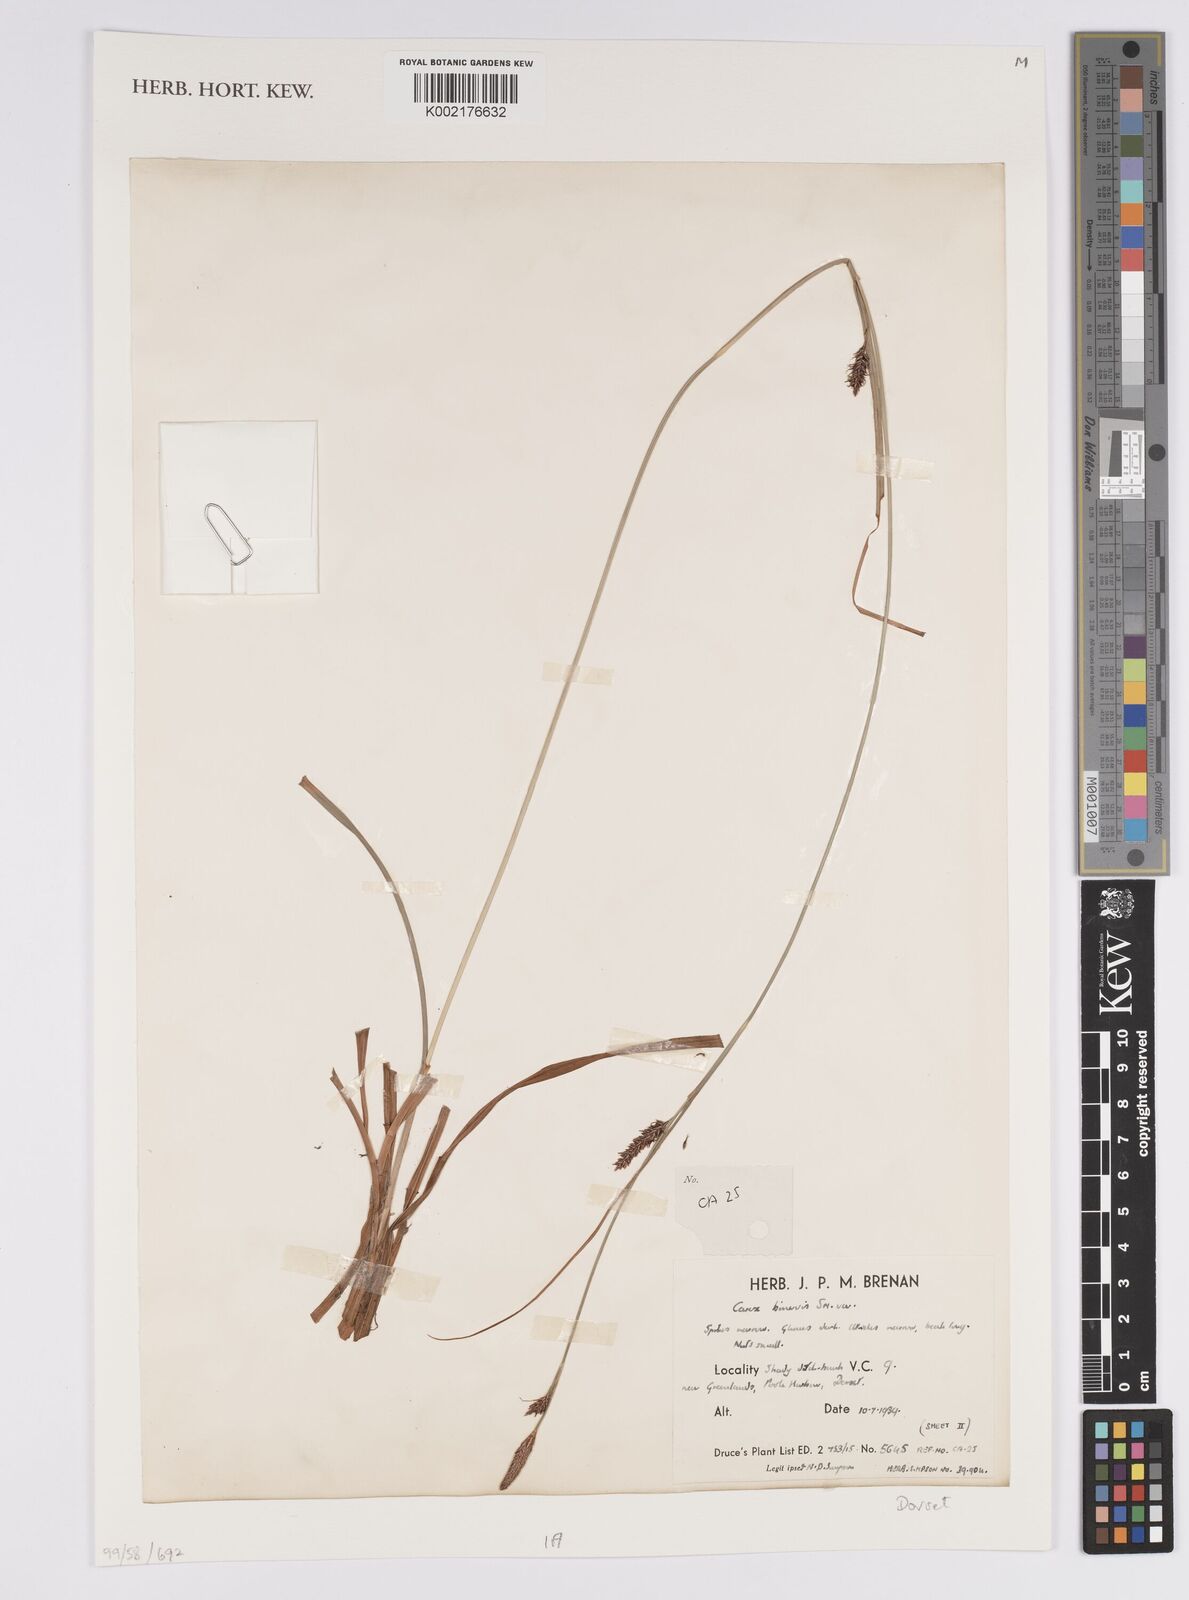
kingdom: Plantae
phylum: Tracheophyta
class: Liliopsida
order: Poales
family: Cyperaceae
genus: Carex
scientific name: Carex binervis
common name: Green-ribbed sedge
